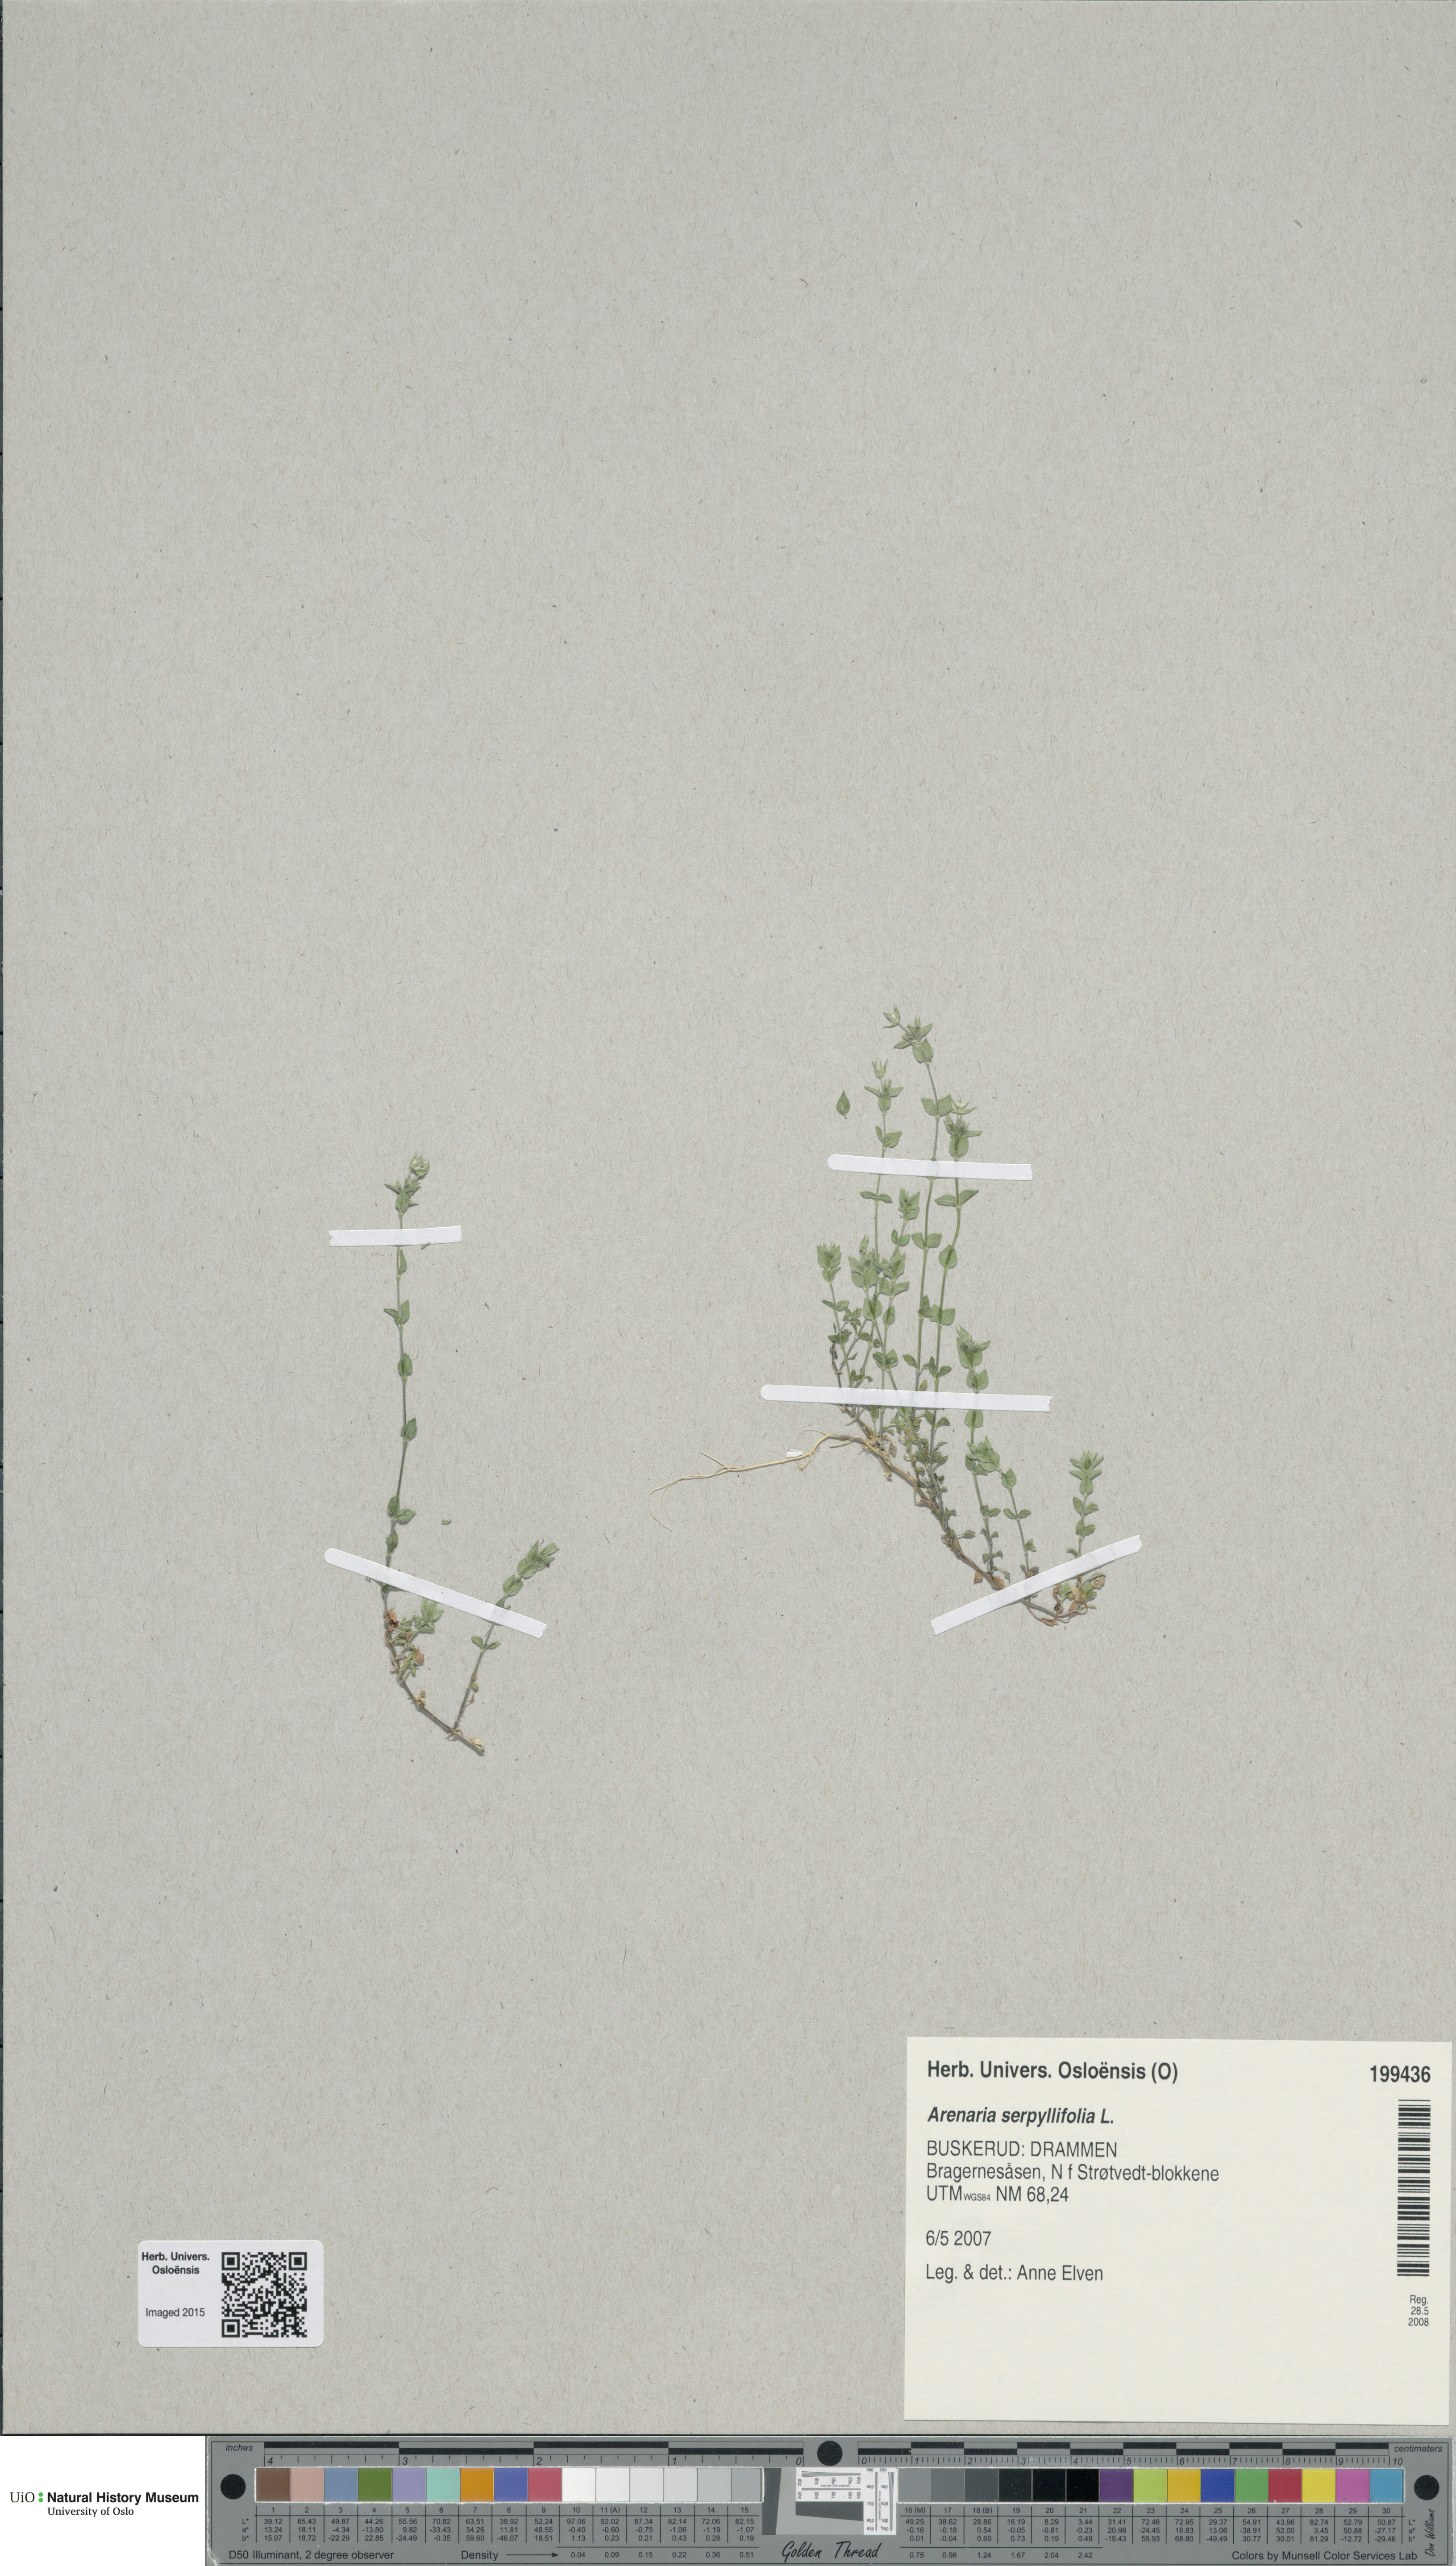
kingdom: Plantae
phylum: Tracheophyta
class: Magnoliopsida
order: Caryophyllales
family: Caryophyllaceae
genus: Arenaria
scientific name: Arenaria serpyllifolia
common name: Thyme-leaved sandwort
